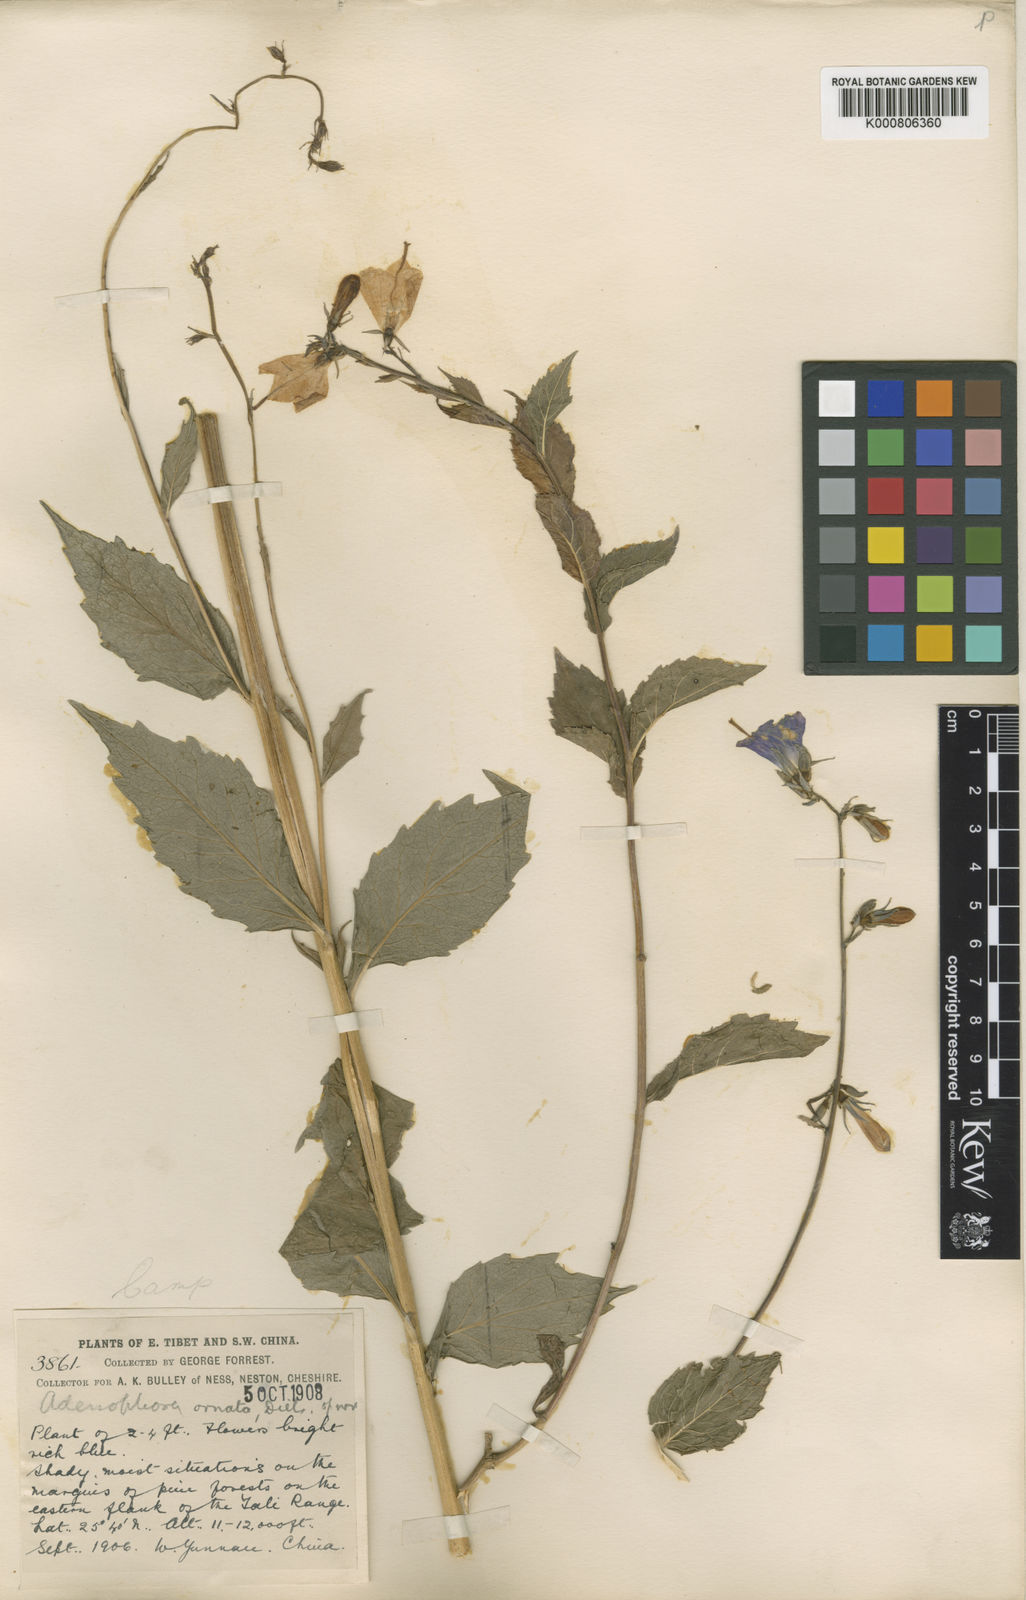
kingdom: Plantae
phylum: Tracheophyta
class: Magnoliopsida
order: Asterales
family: Campanulaceae
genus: Adenophora
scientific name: Adenophora coelestis
